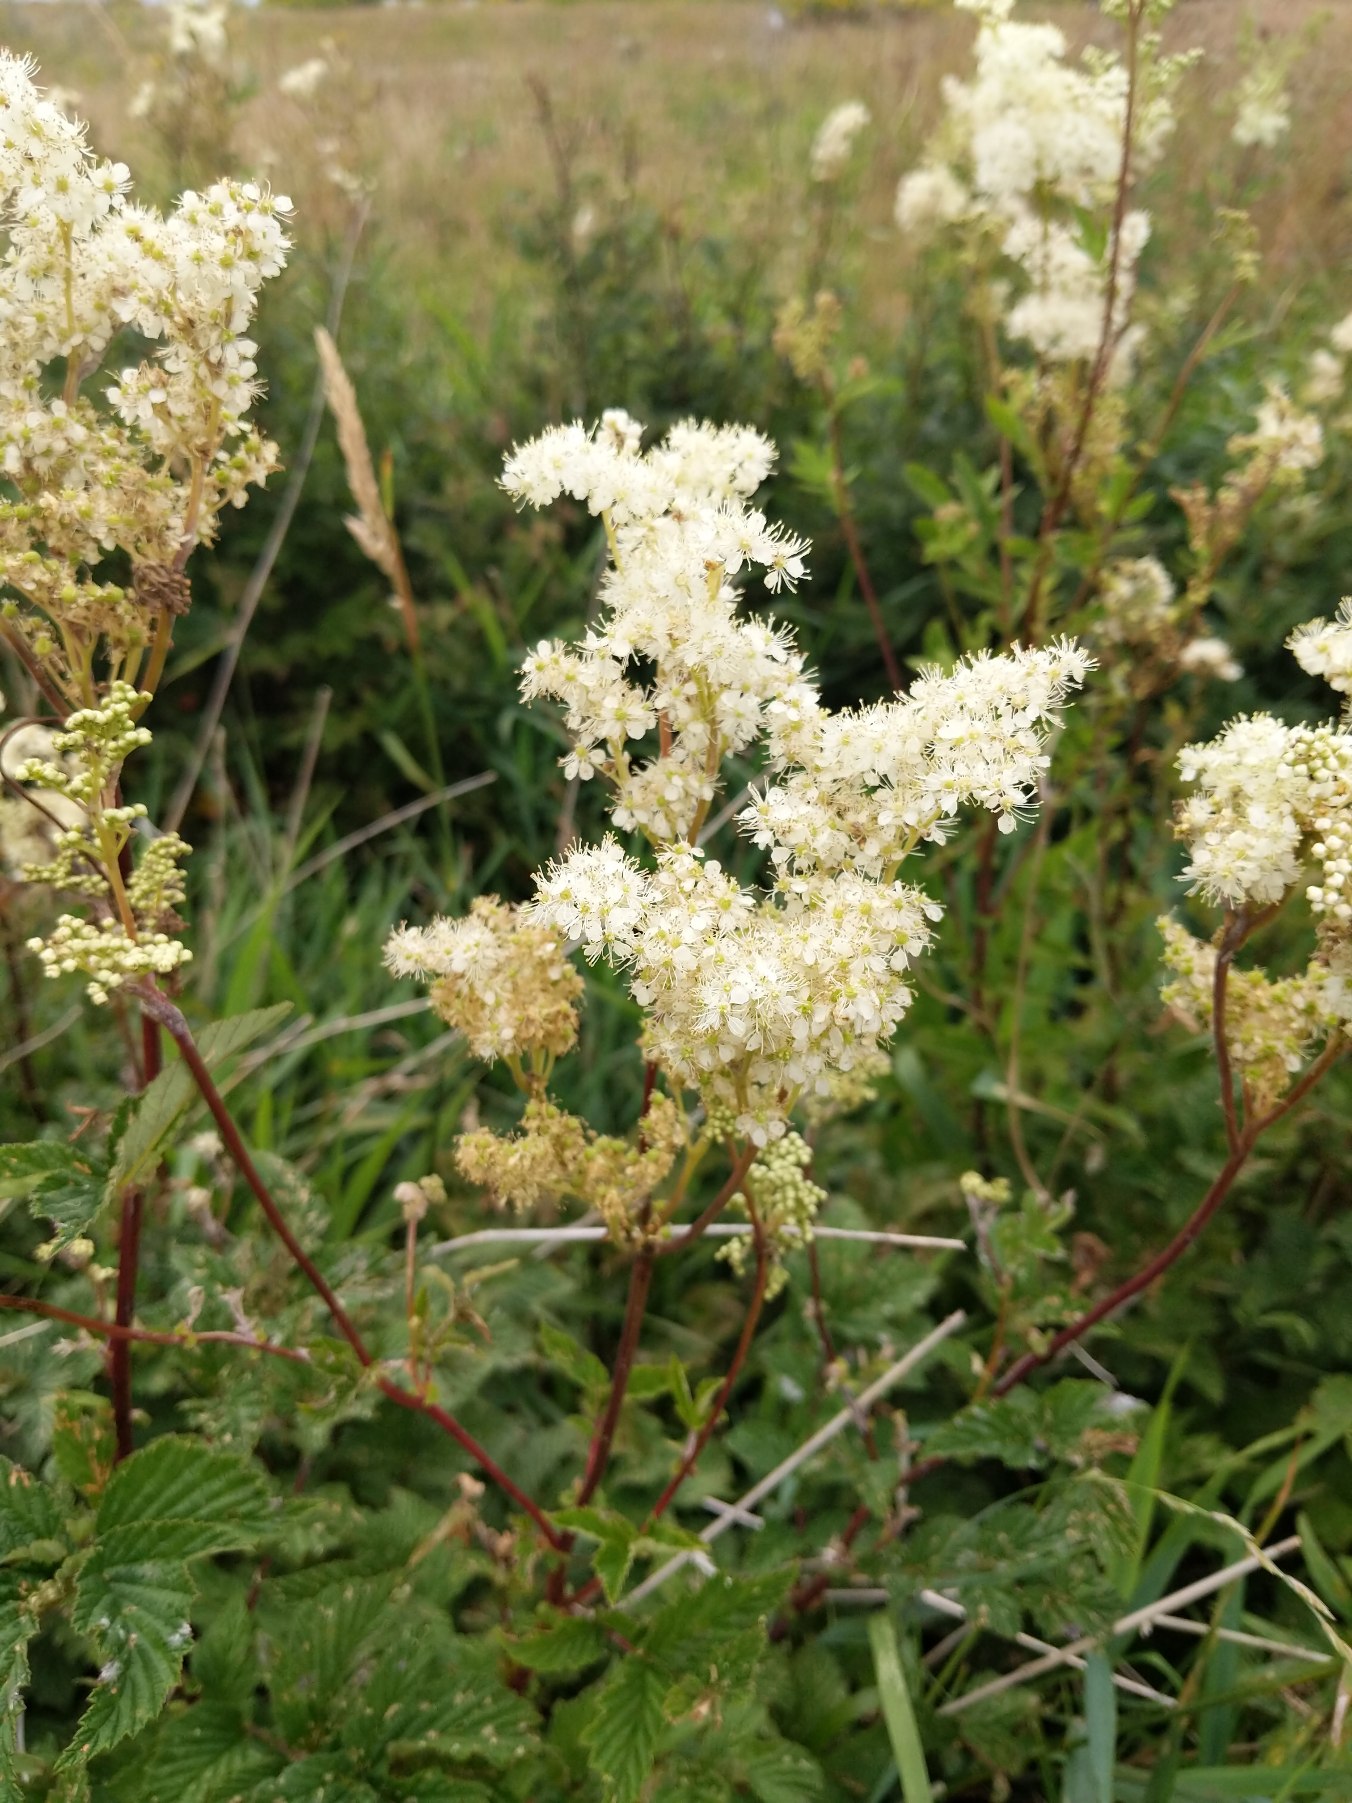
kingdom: Plantae
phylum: Tracheophyta
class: Magnoliopsida
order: Rosales
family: Rosaceae
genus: Filipendula
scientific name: Filipendula ulmaria
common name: Almindelig mjødurt
